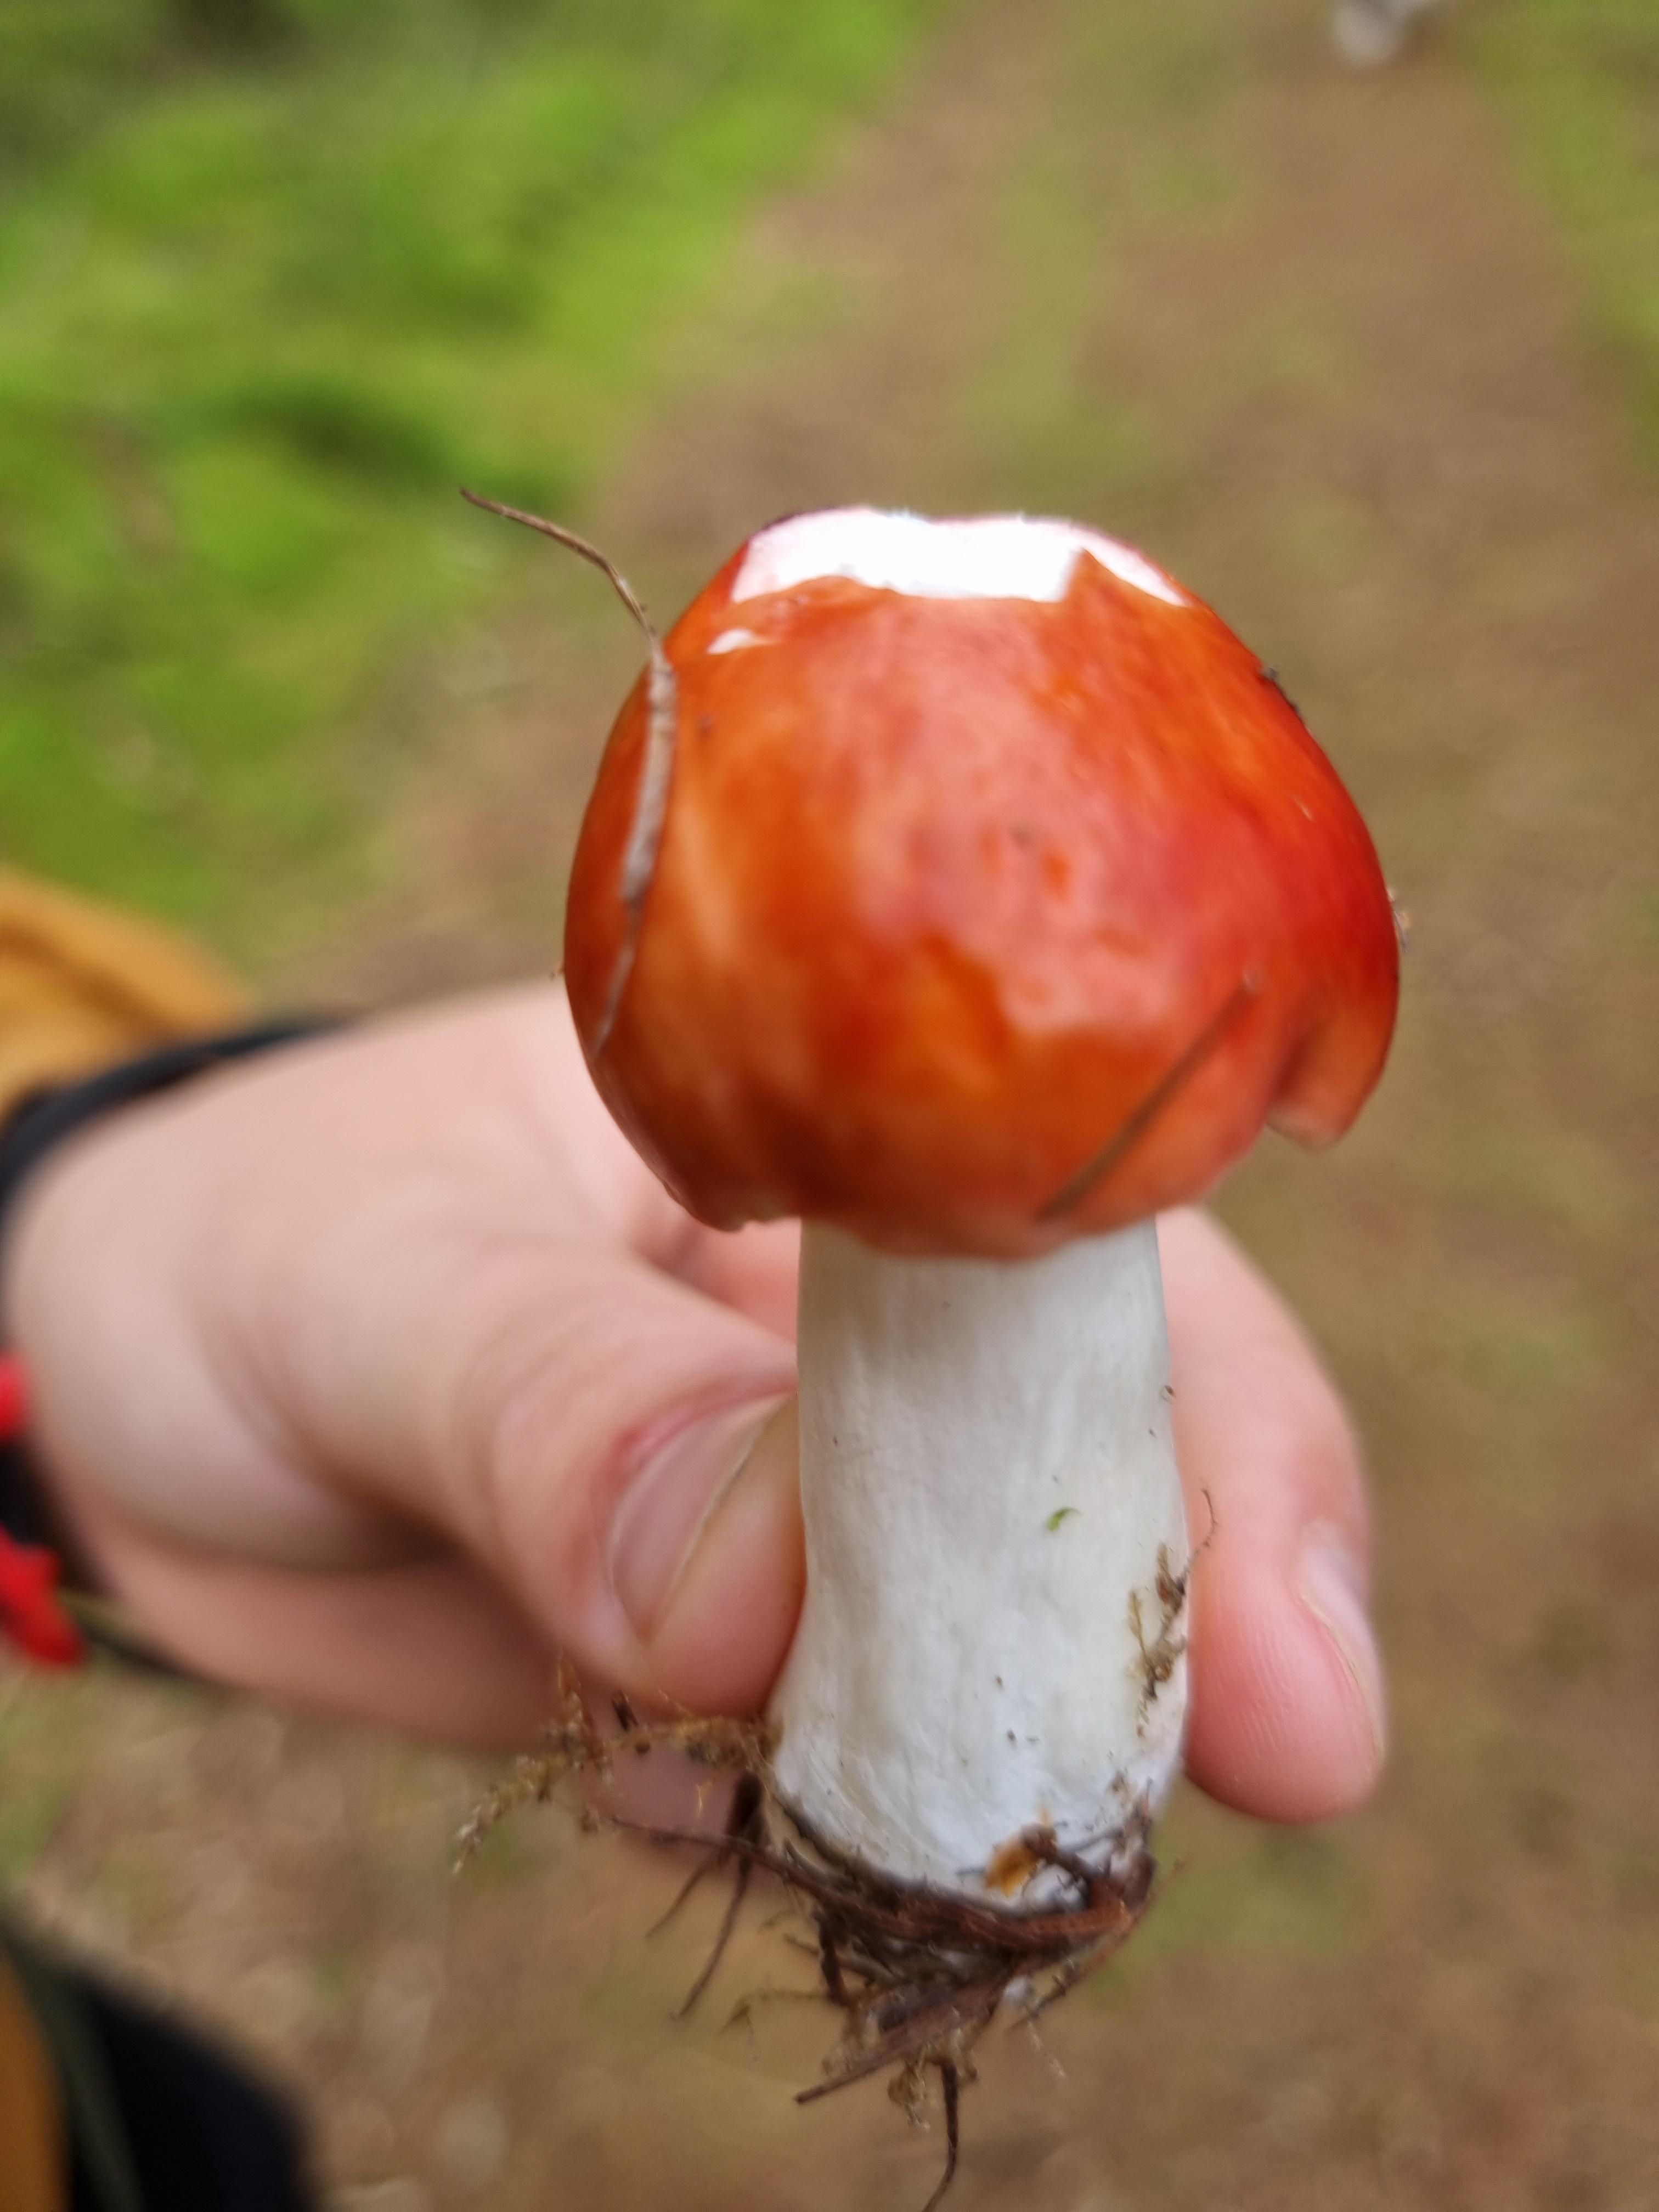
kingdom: Fungi
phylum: Basidiomycota
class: Agaricomycetes
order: Russulales
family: Russulaceae
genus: Russula
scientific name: Russula paludosa
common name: prægtig skørhat
